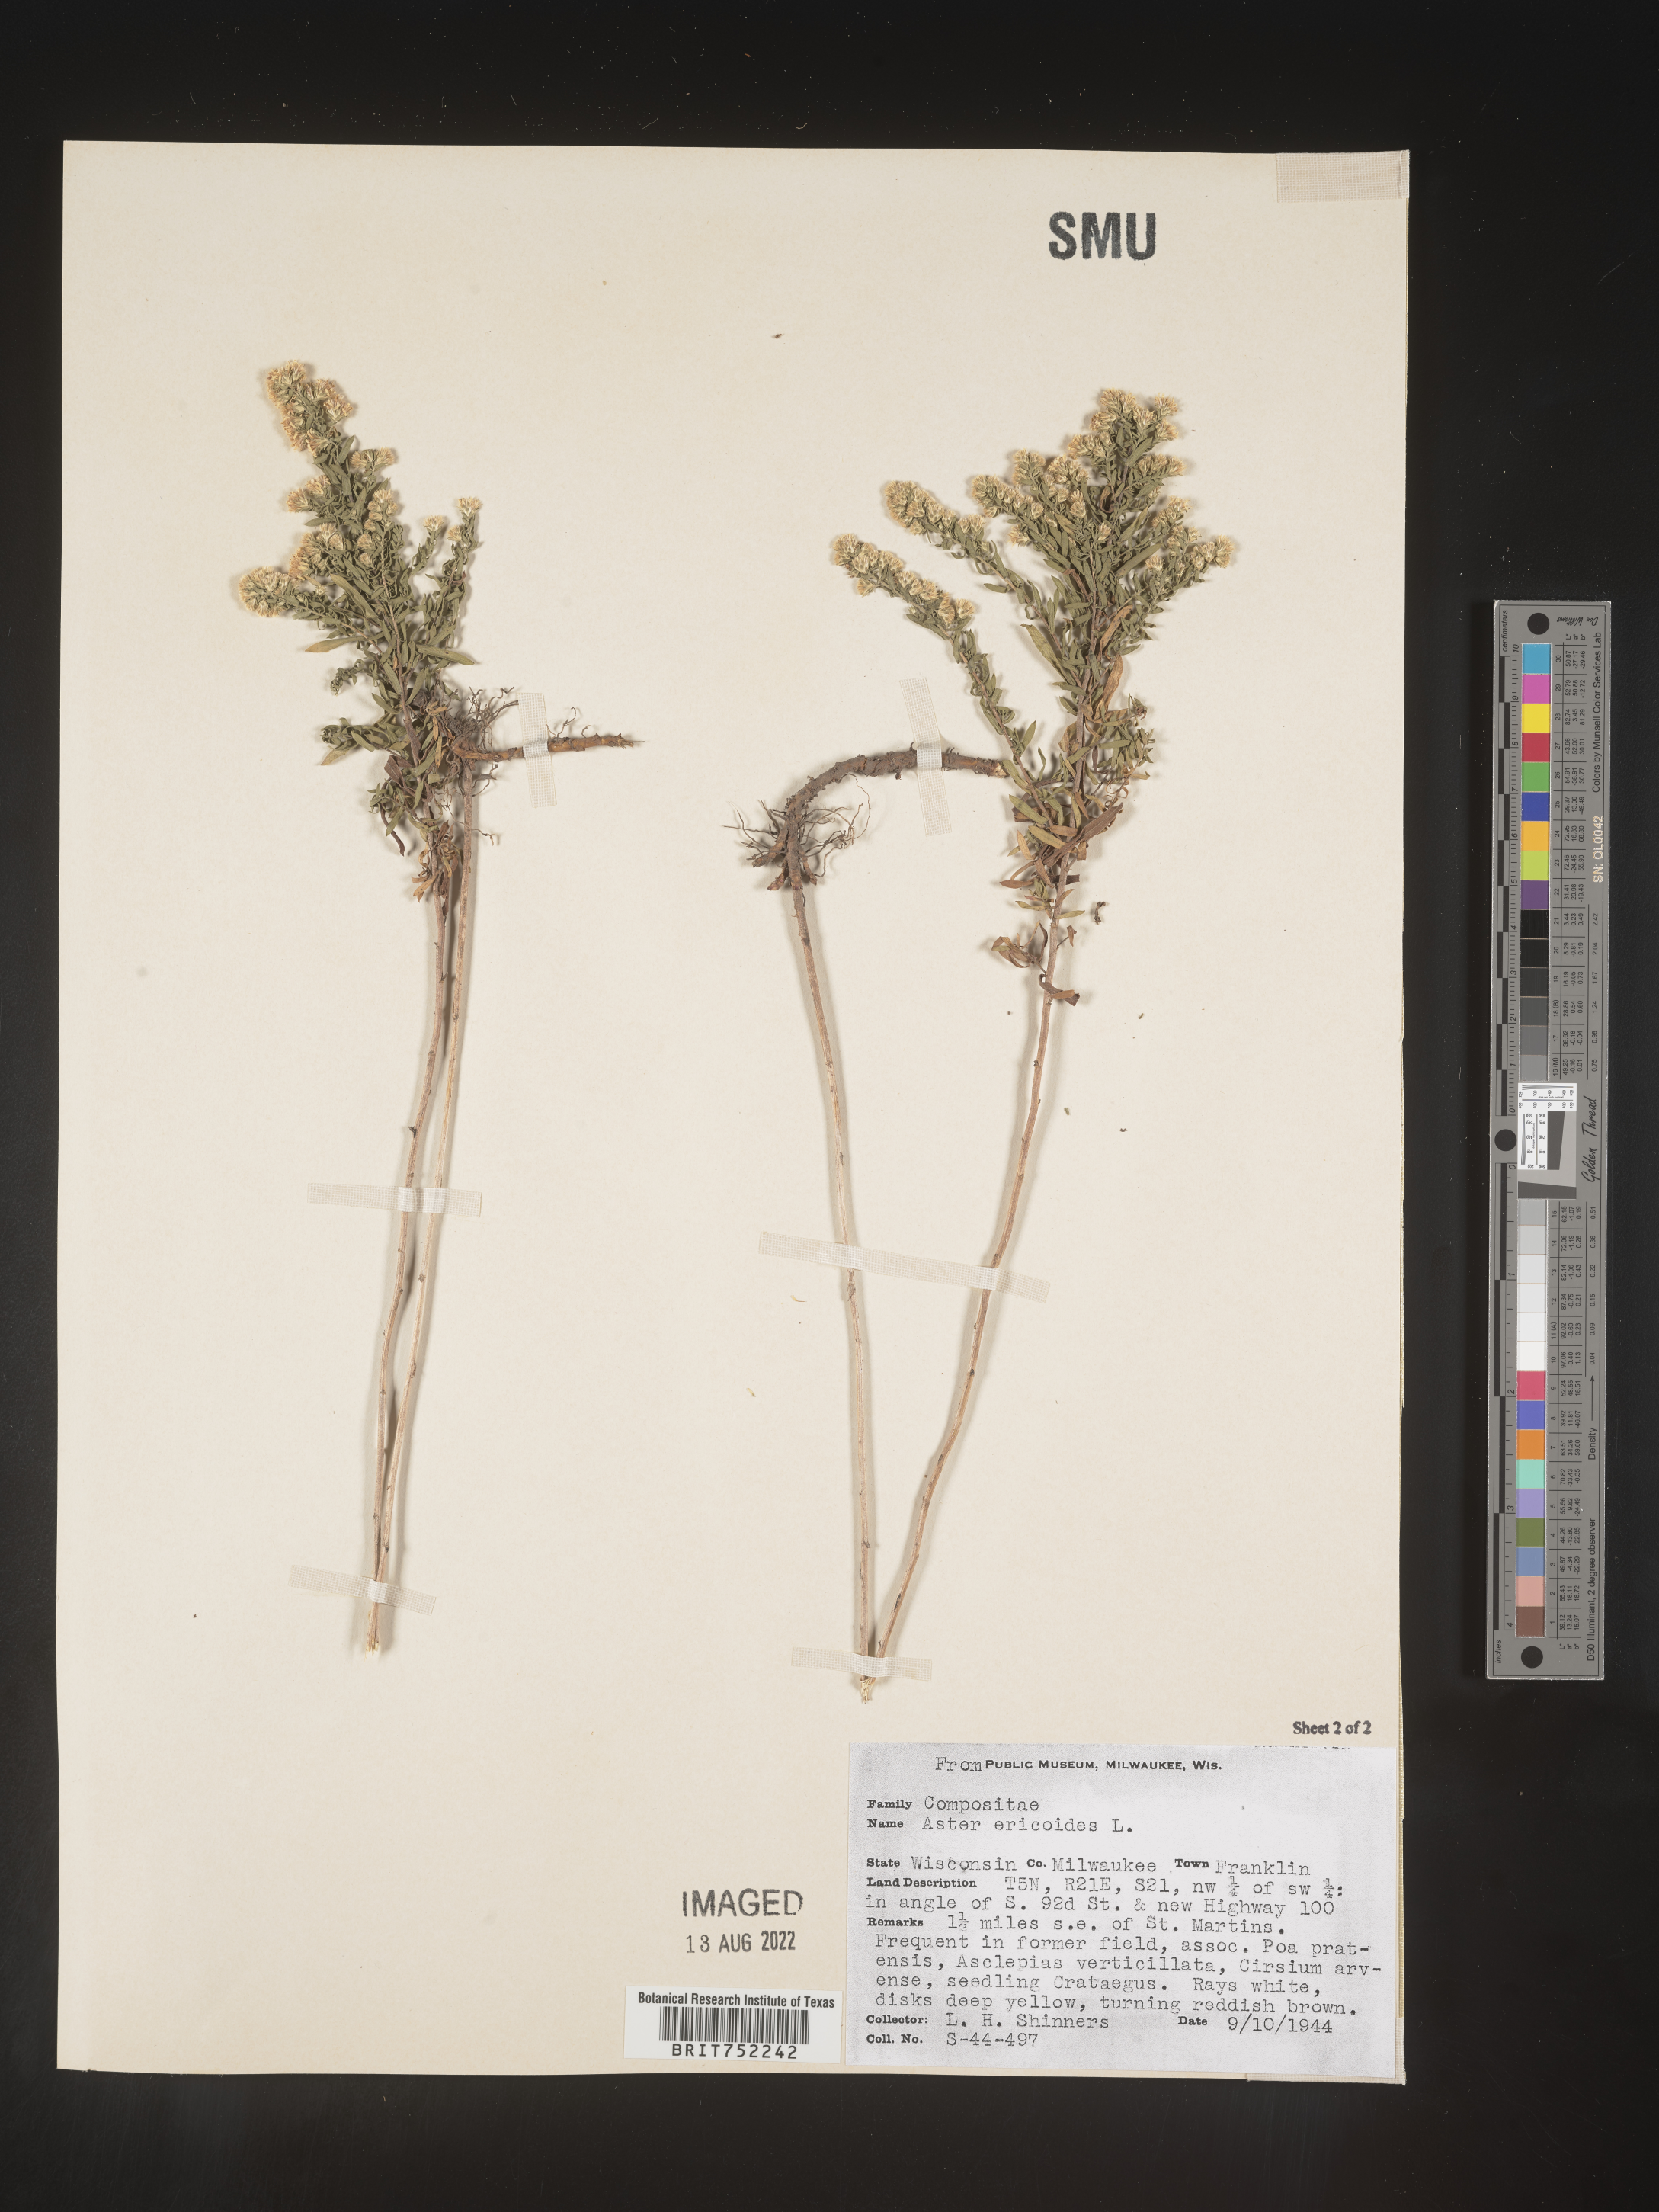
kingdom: Plantae
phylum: Tracheophyta
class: Magnoliopsida
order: Asterales
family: Asteraceae
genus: Symphyotrichum
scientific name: Symphyotrichum ericoides
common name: Heath aster
